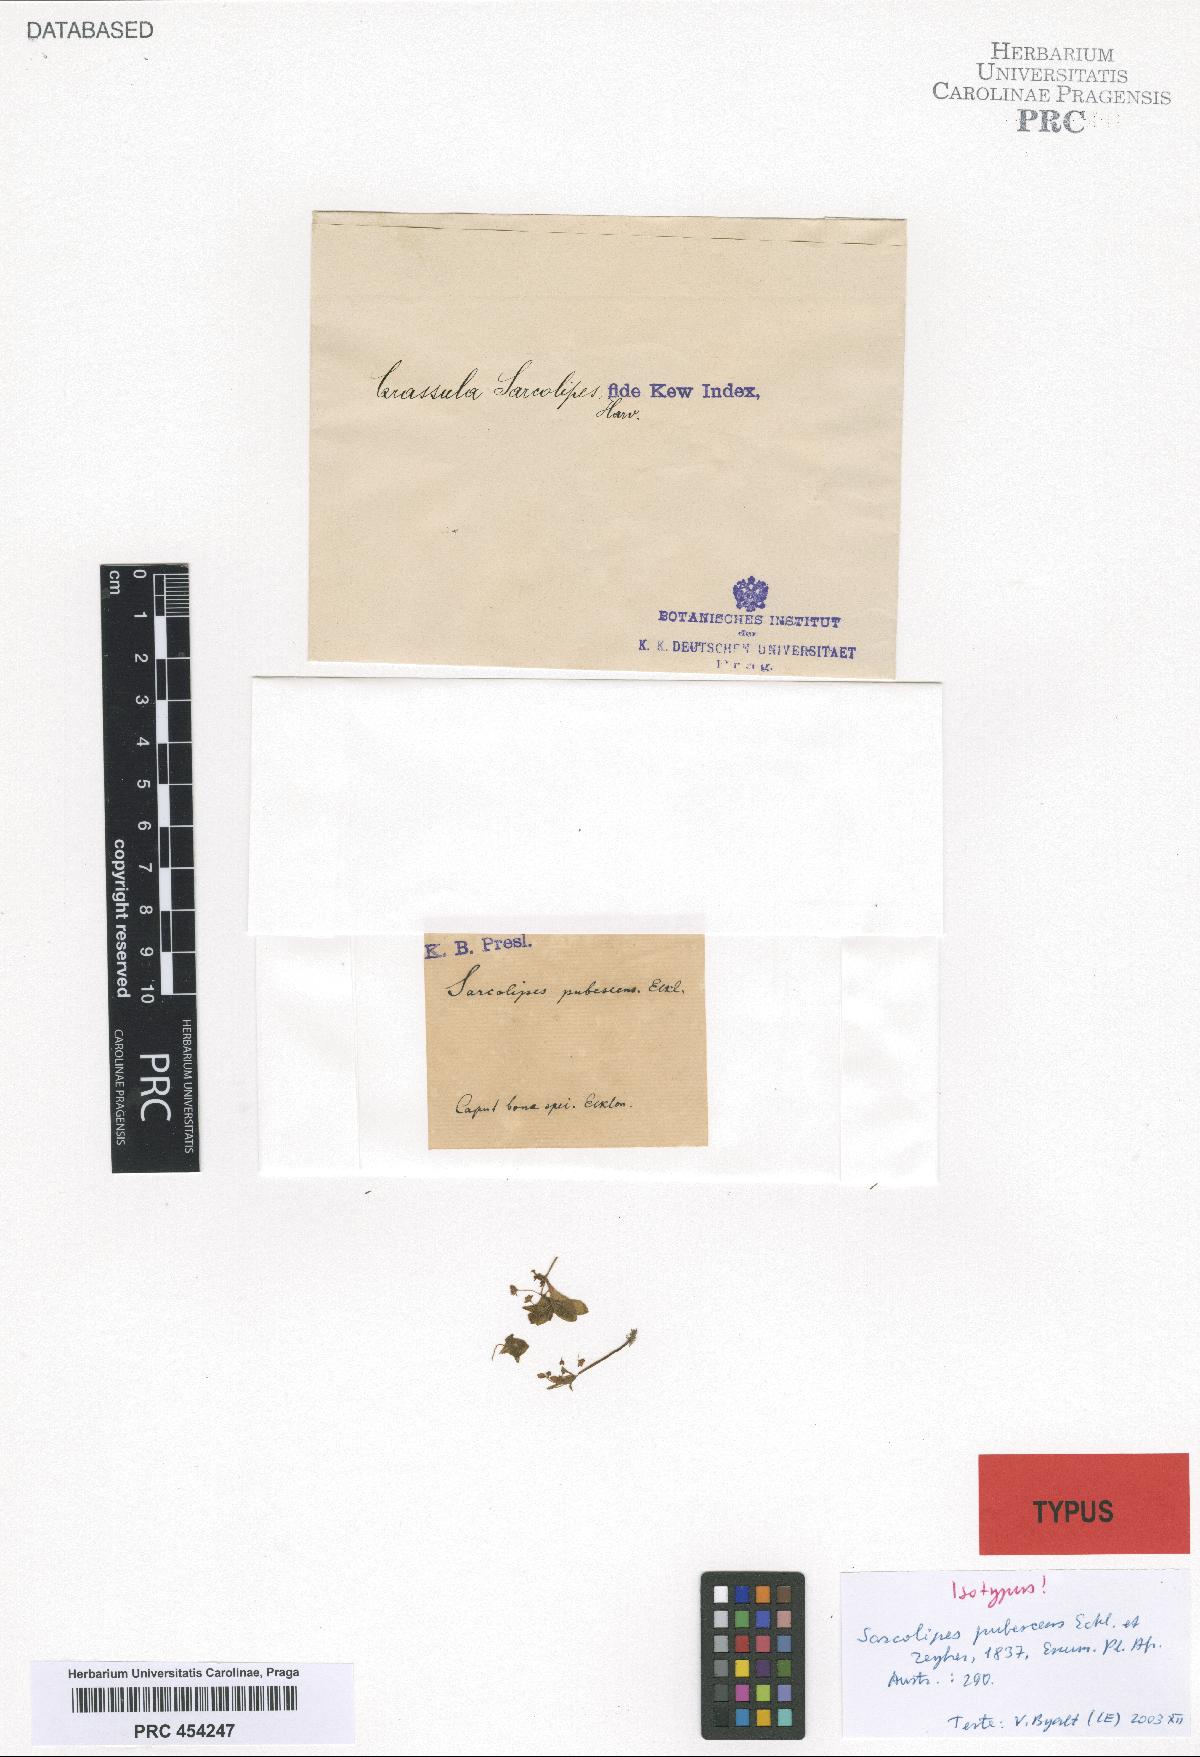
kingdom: Plantae
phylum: Tracheophyta
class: Magnoliopsida
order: Saxifragales
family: Crassulaceae
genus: Crassula
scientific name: Crassula strigosa
